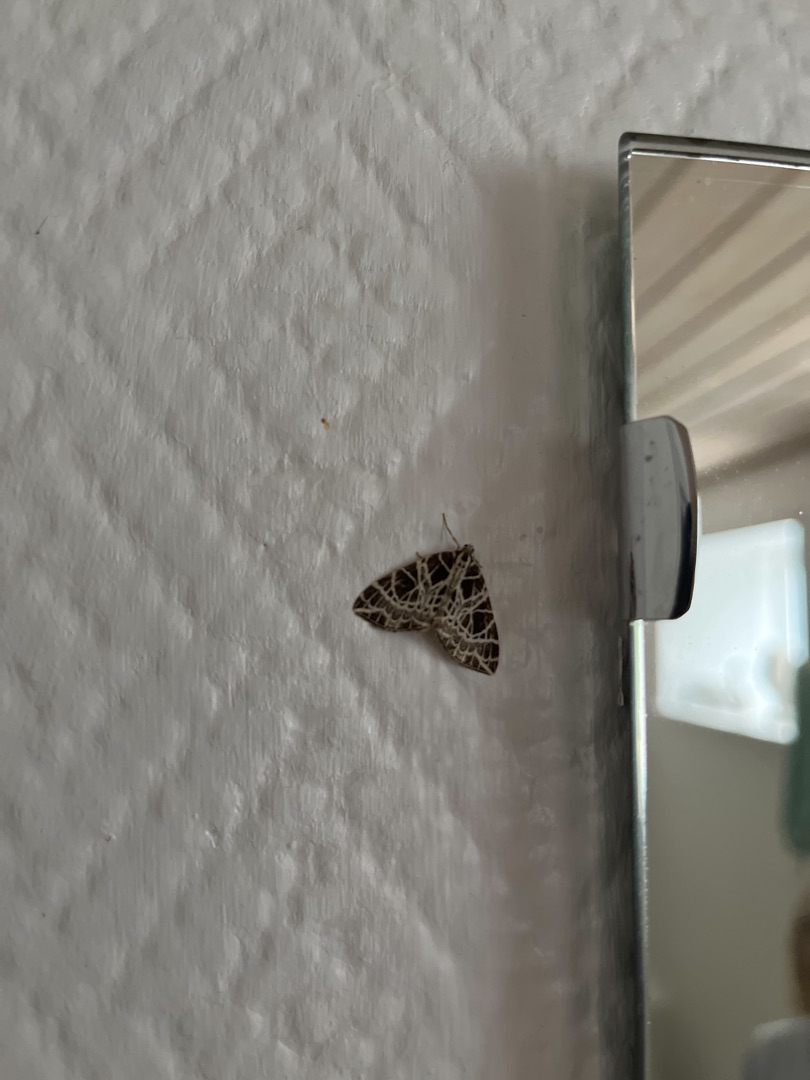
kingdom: Animalia
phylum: Arthropoda
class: Insecta
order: Lepidoptera
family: Geometridae
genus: Eustroma
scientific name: Eustroma reticulata
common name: Netåret måler
